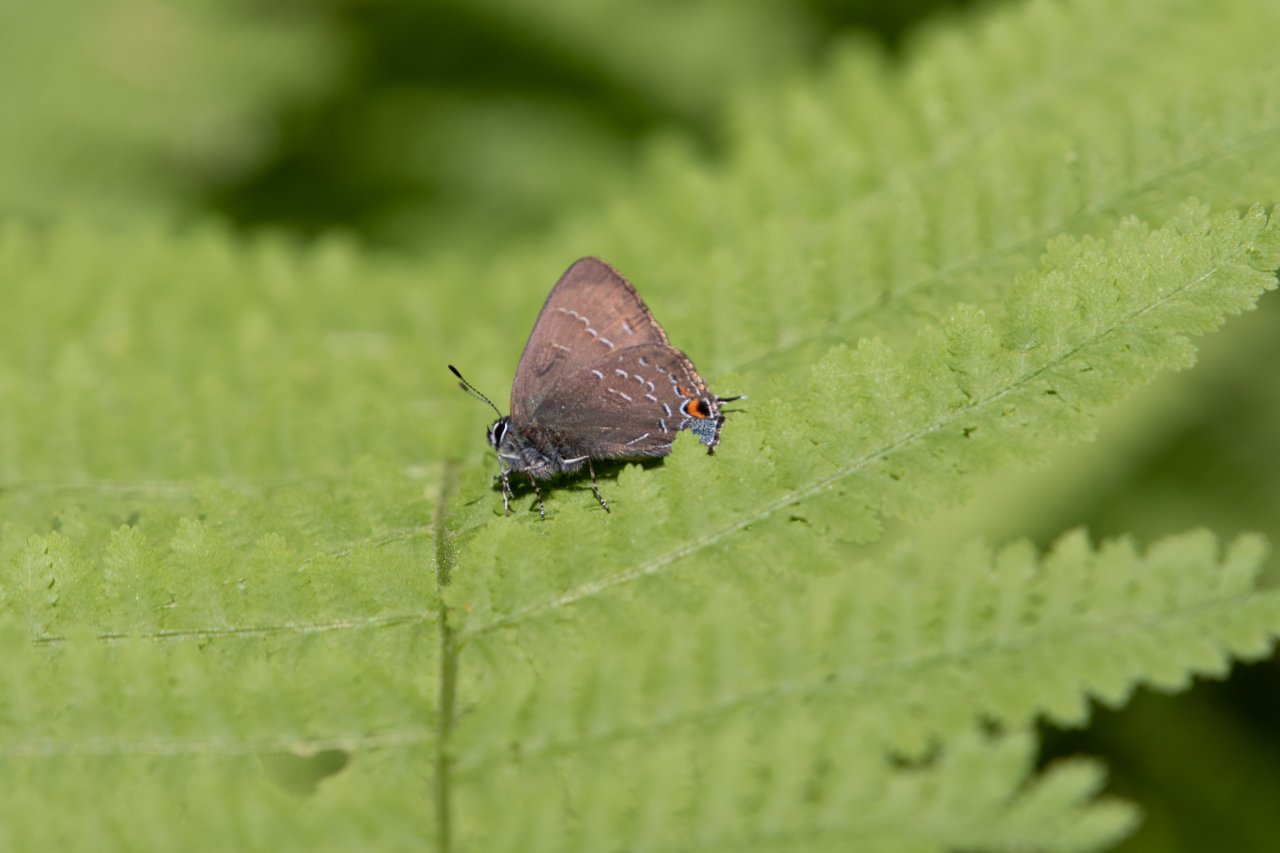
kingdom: Animalia
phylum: Arthropoda
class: Insecta
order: Lepidoptera
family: Lycaenidae
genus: Satyrium
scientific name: Satyrium calanus
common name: Banded Hairstreak
